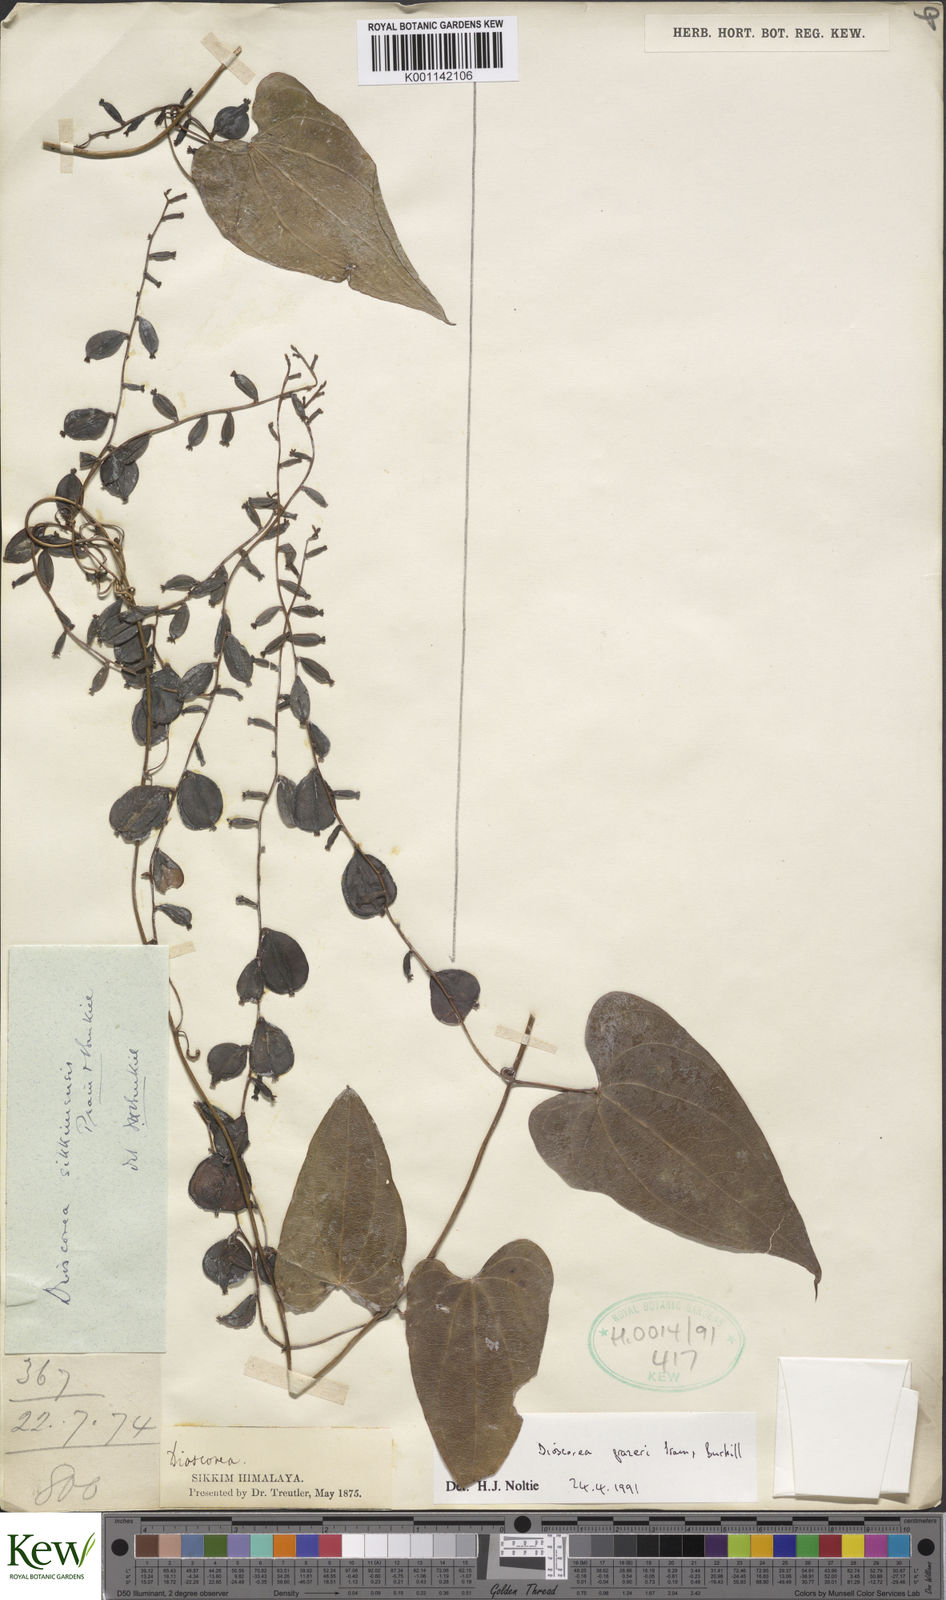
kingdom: Plantae
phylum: Tracheophyta
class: Liliopsida
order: Dioscoreales
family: Dioscoreaceae
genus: Dioscorea
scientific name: Dioscorea prazeri
